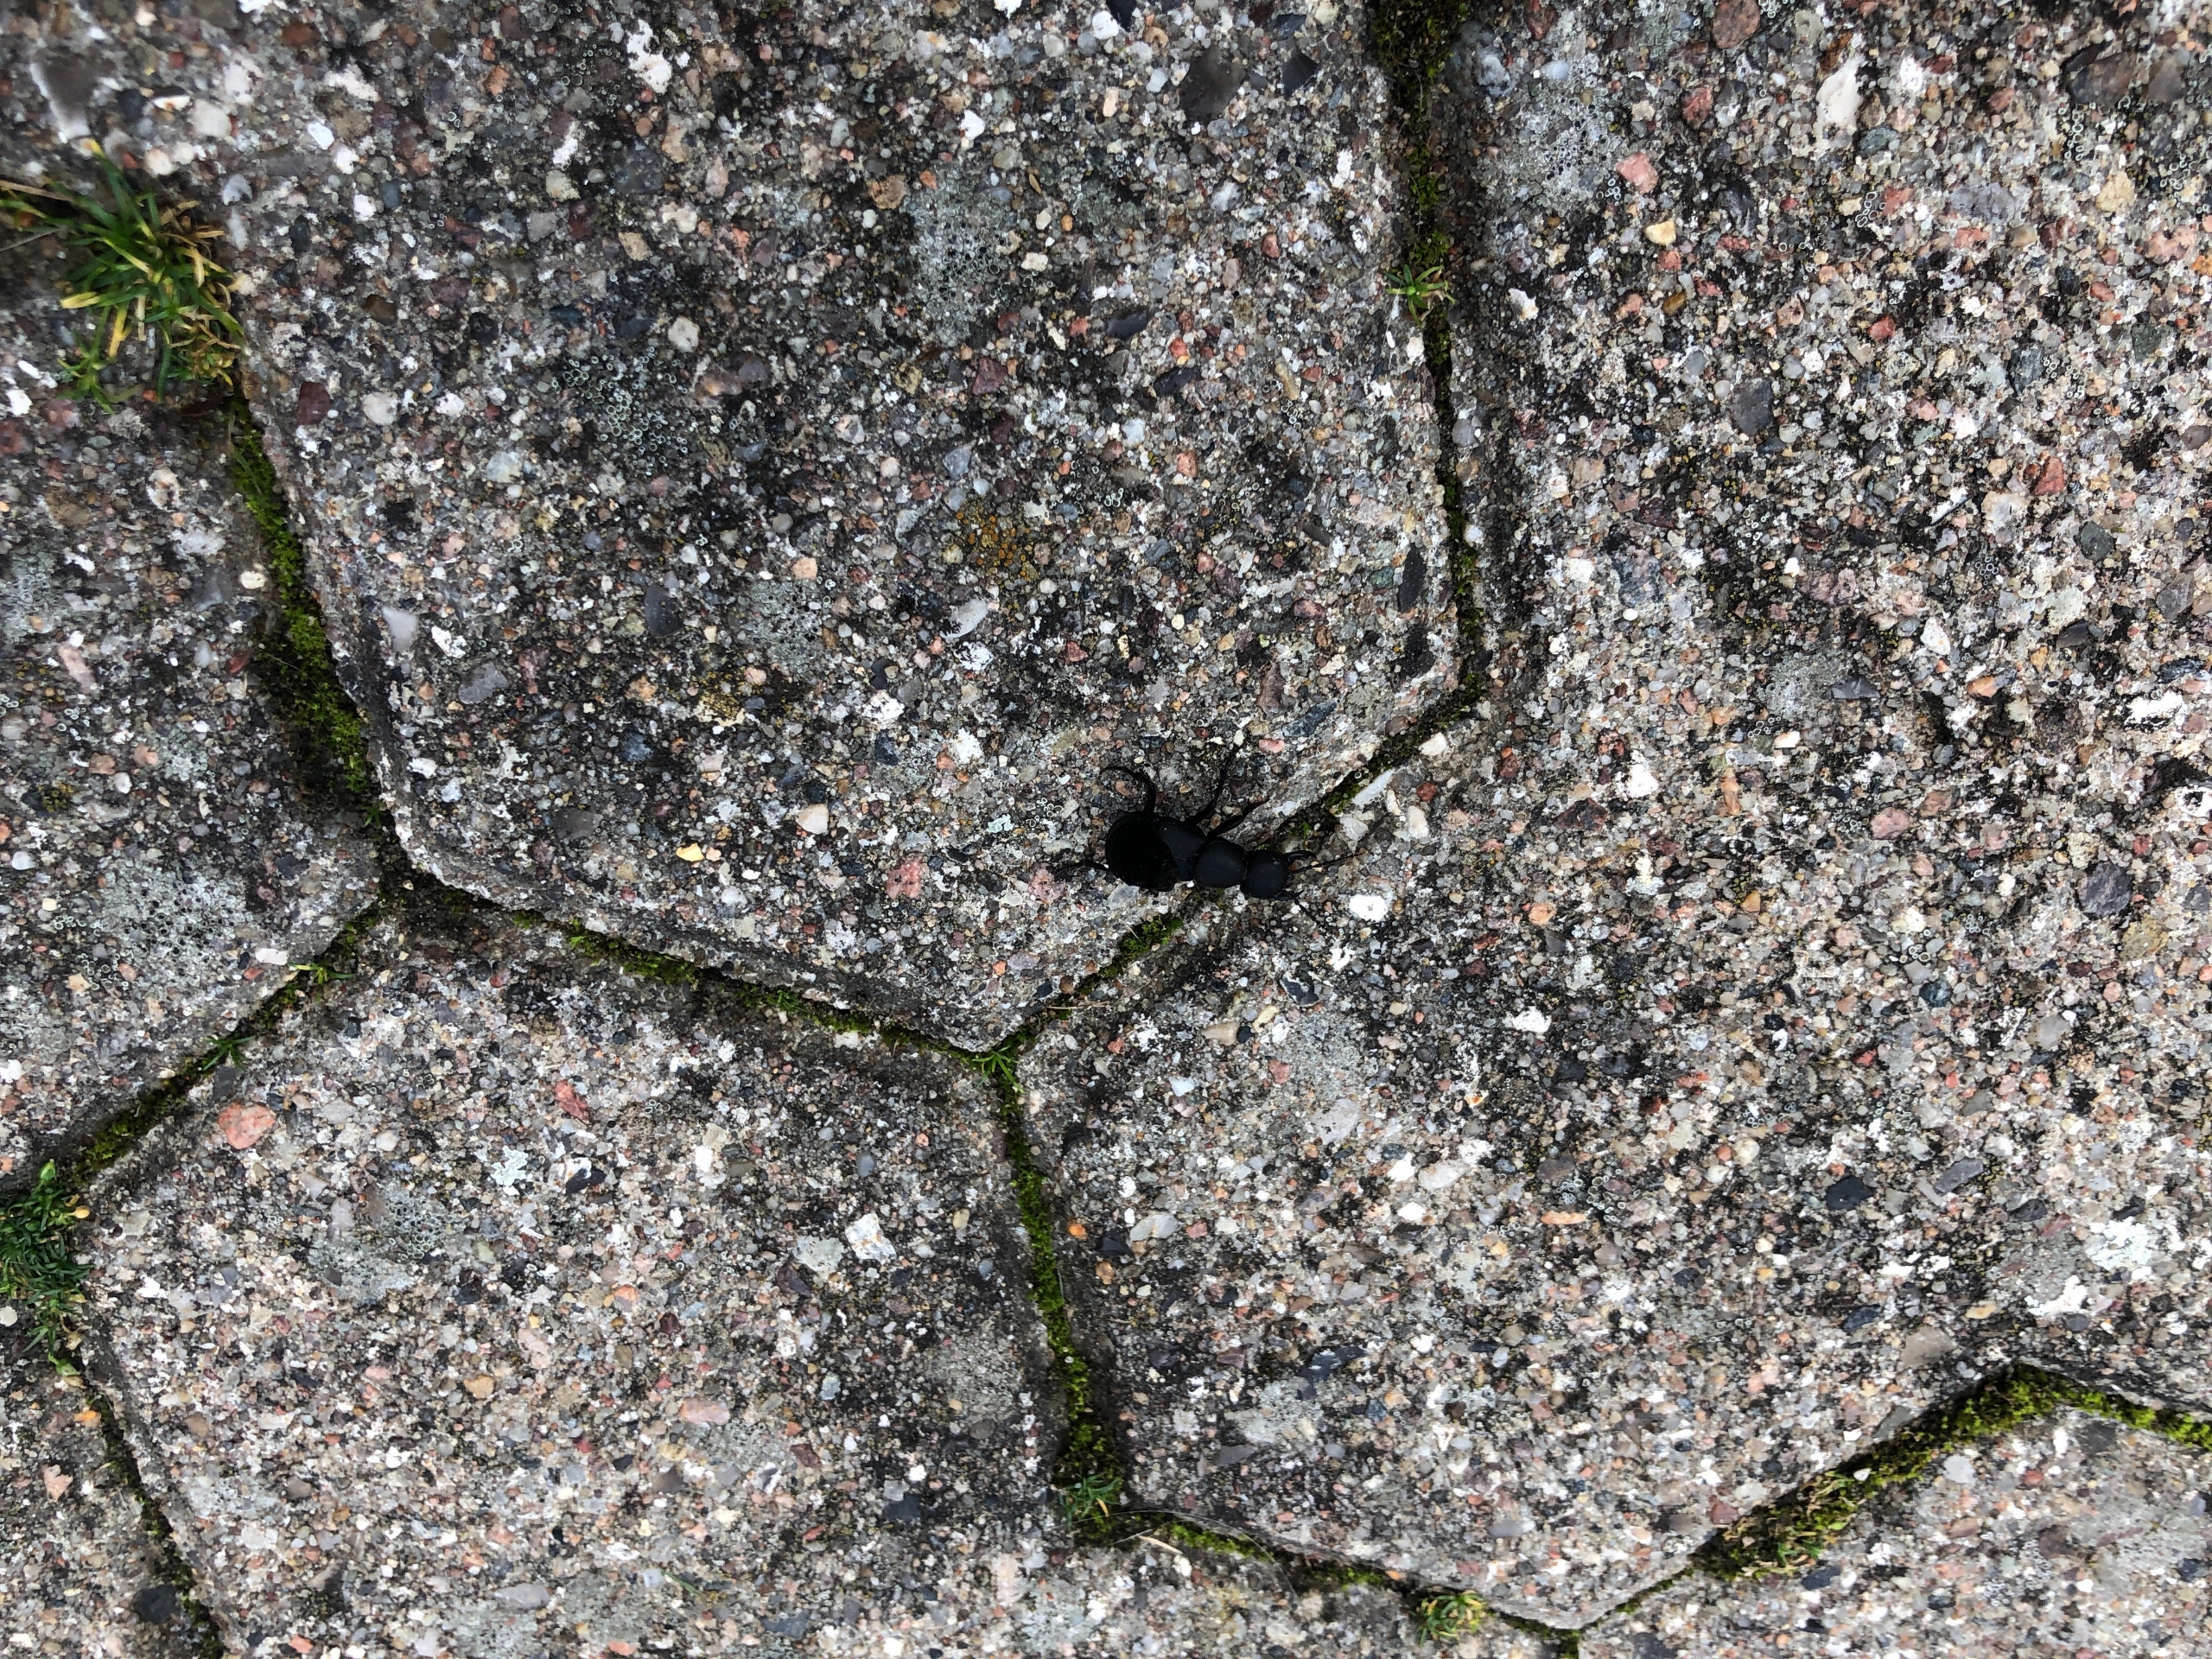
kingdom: Animalia
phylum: Arthropoda
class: Insecta
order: Coleoptera
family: Staphylinidae
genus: Ocypus
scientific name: Ocypus olens
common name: Stor rovbille
